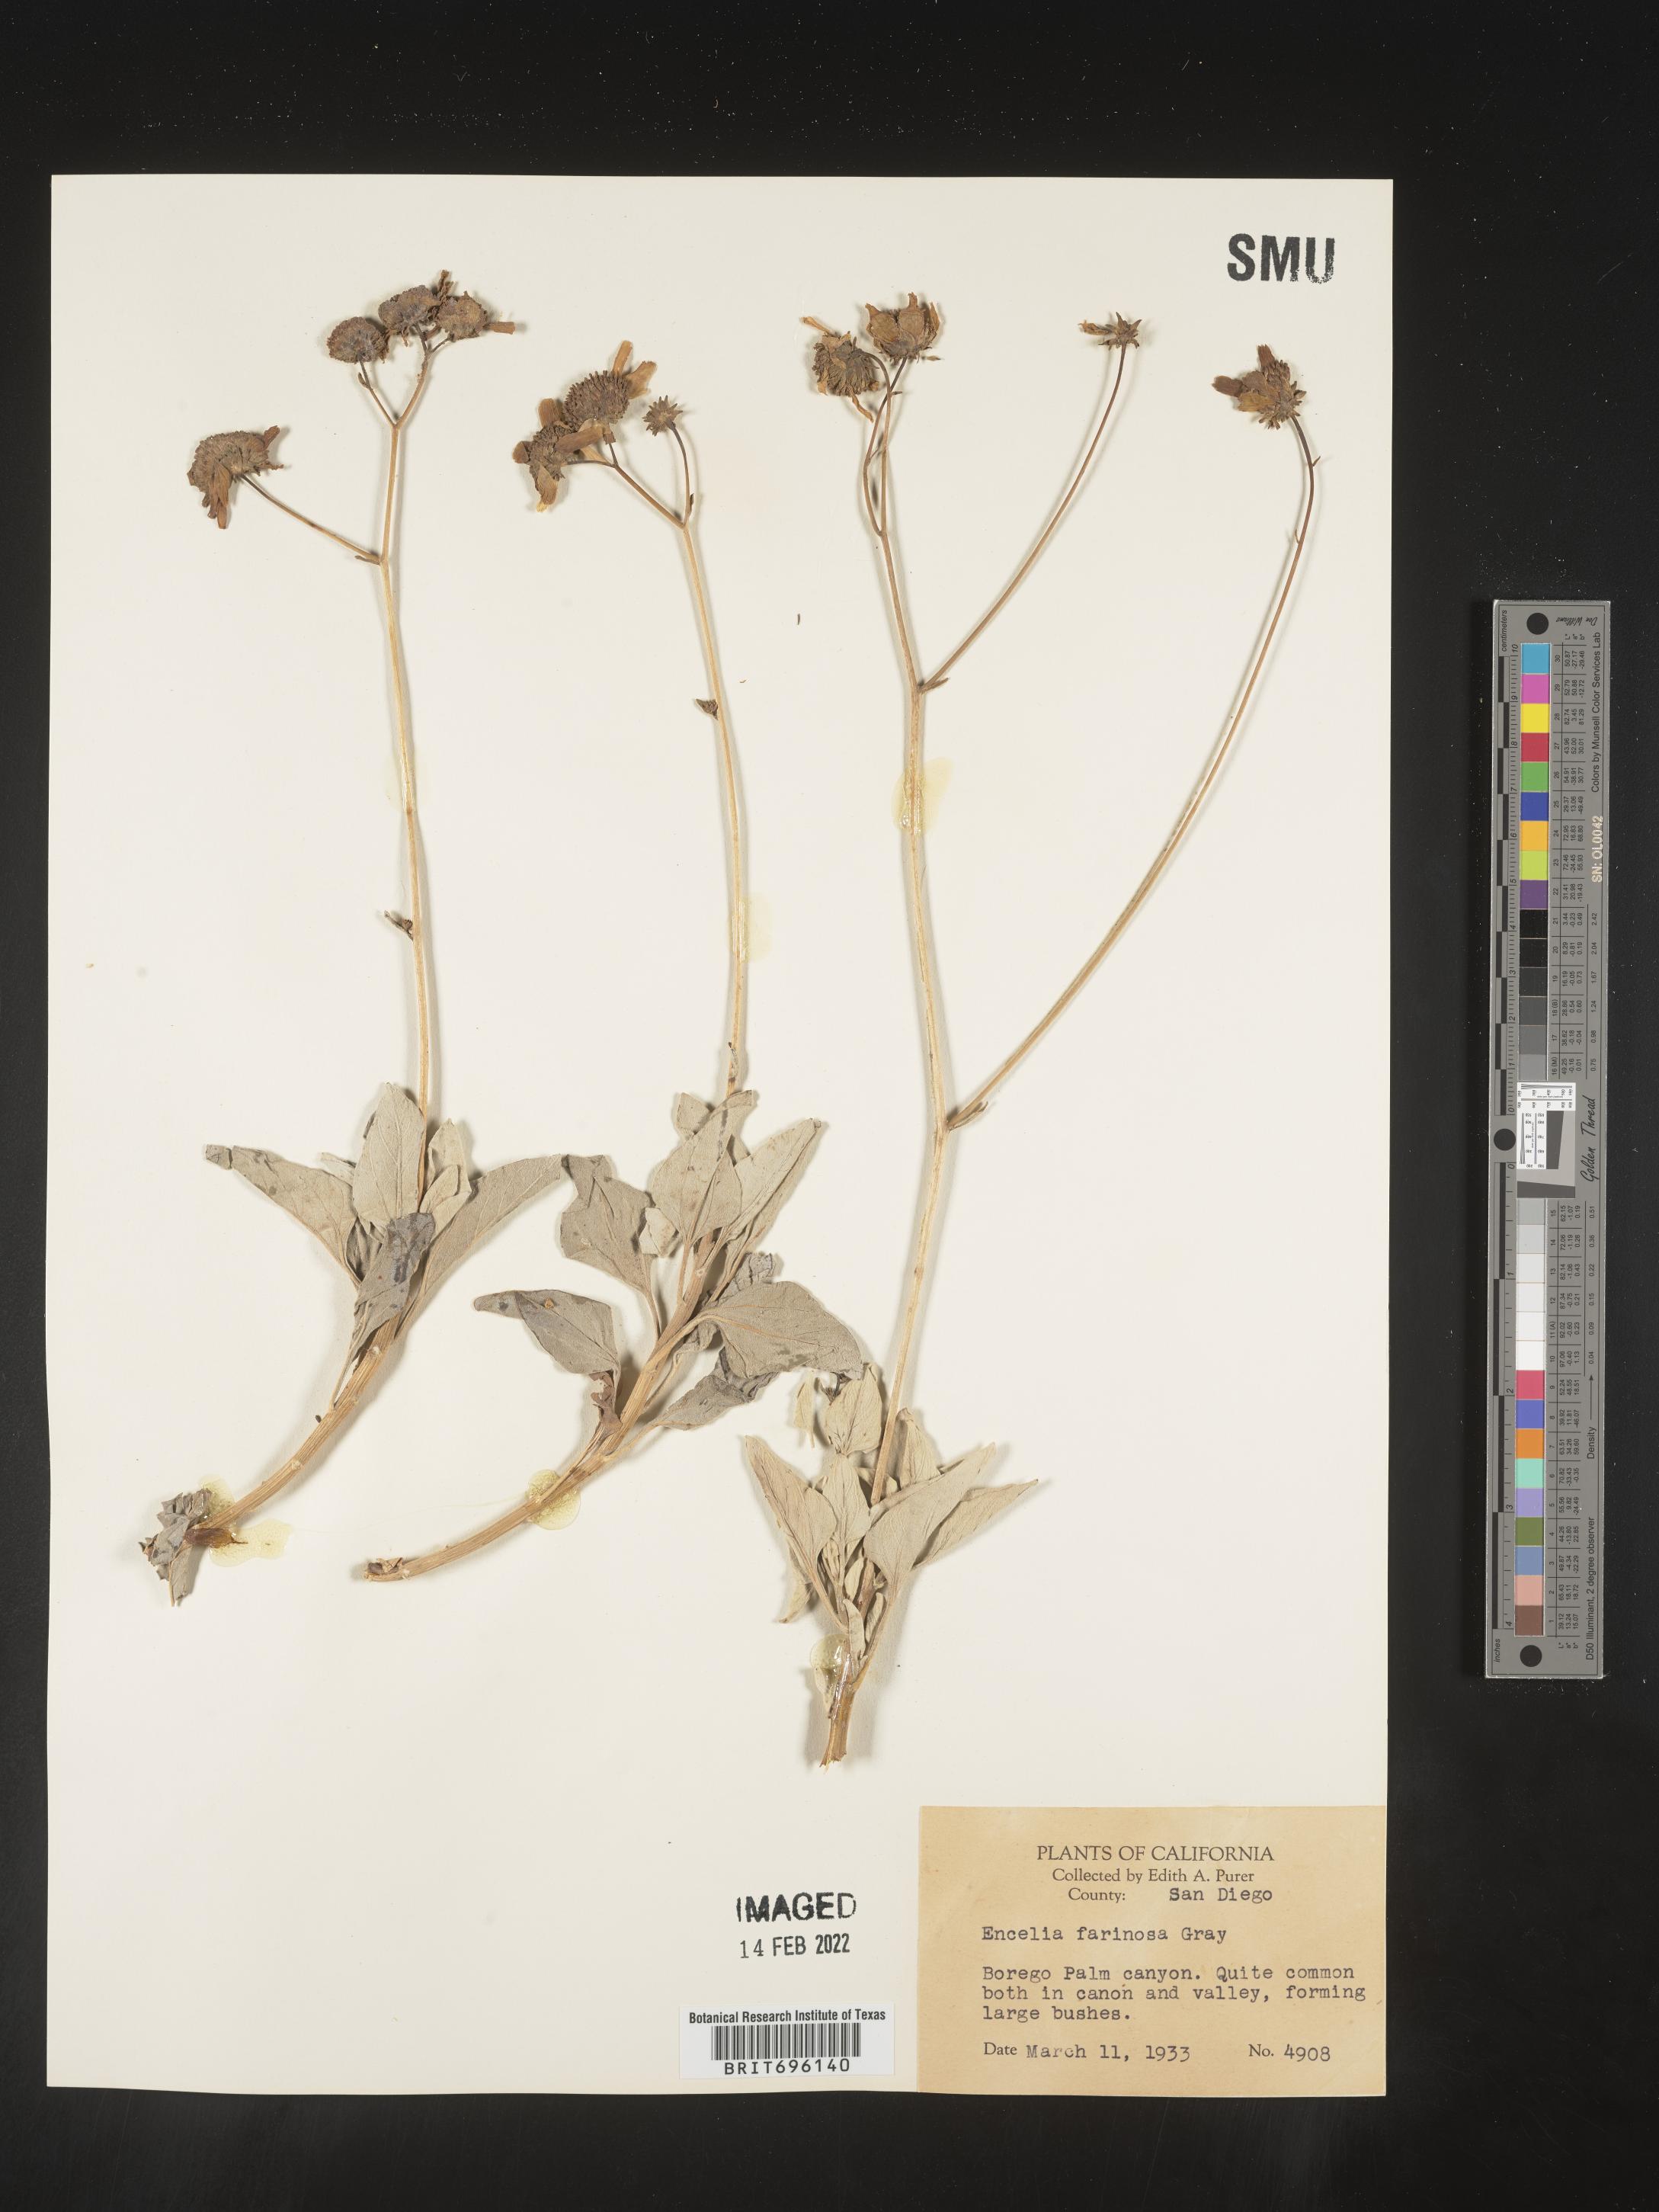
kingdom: Plantae
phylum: Tracheophyta
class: Magnoliopsida
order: Asterales
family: Asteraceae
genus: Encelia
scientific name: Encelia farinosa
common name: Brittlebush
